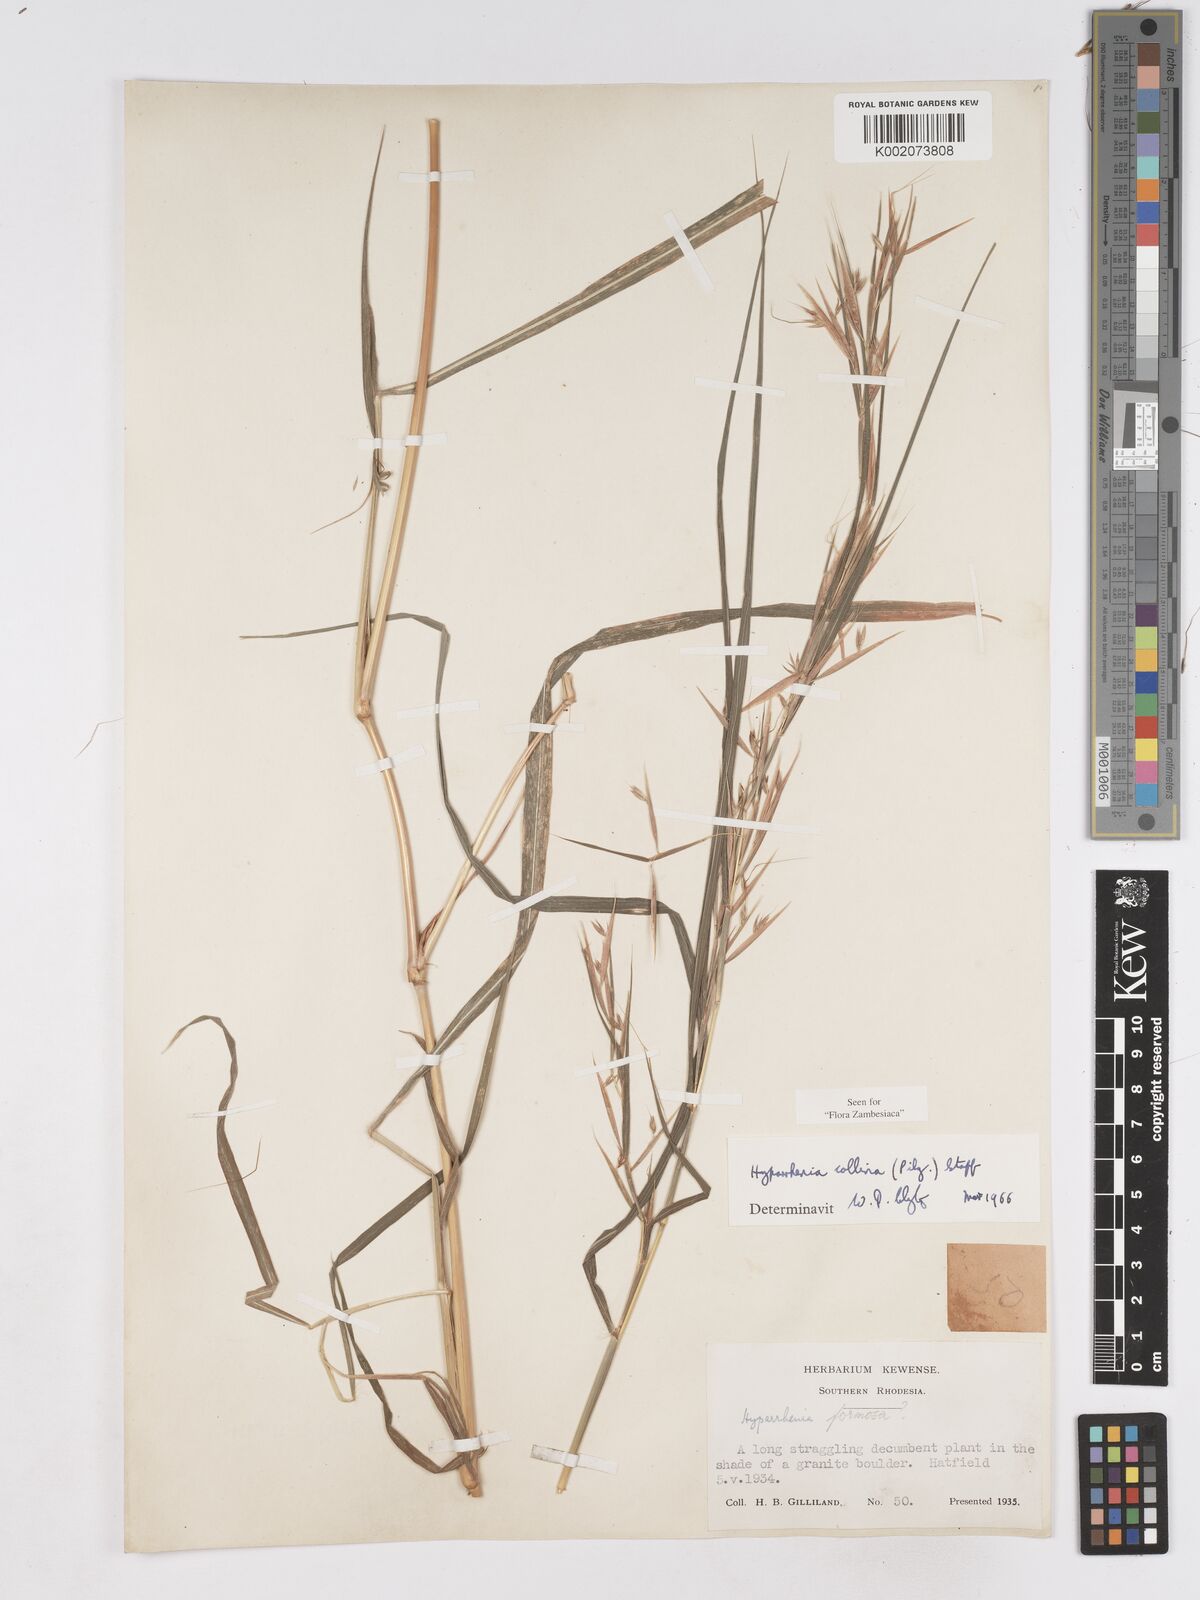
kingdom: Plantae
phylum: Tracheophyta
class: Liliopsida
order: Poales
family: Poaceae
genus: Hyparrhenia
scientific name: Hyparrhenia collina
